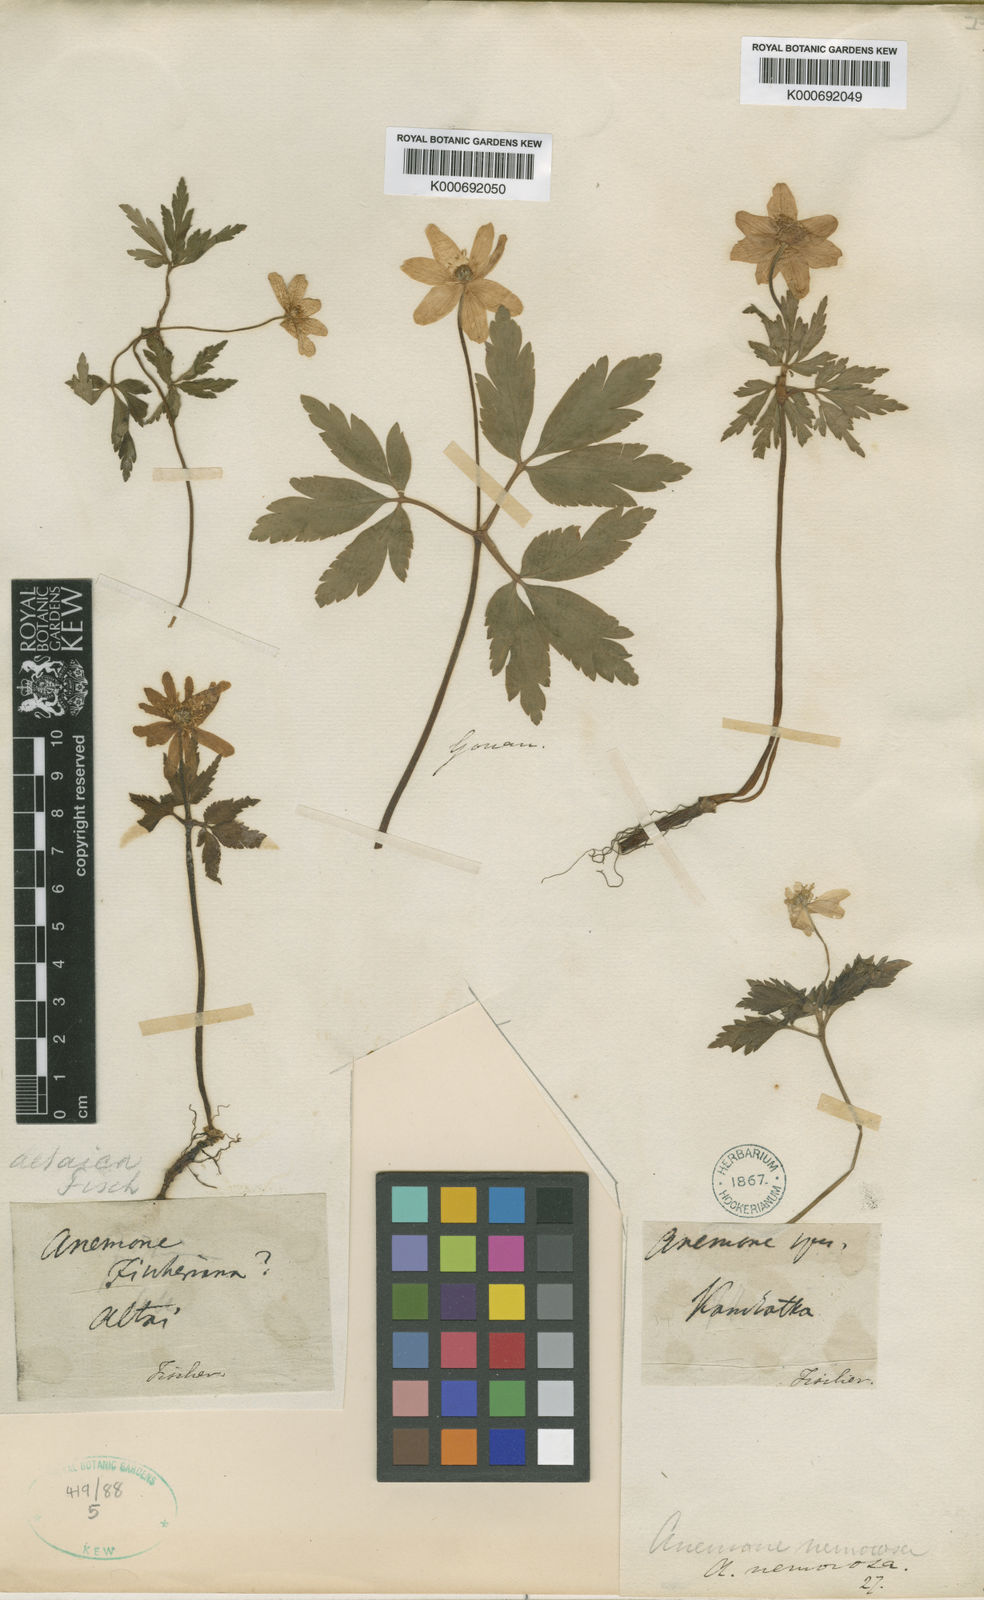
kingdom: Plantae
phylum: Tracheophyta
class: Magnoliopsida
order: Ranunculales
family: Ranunculaceae
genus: Anemone
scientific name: Anemone
